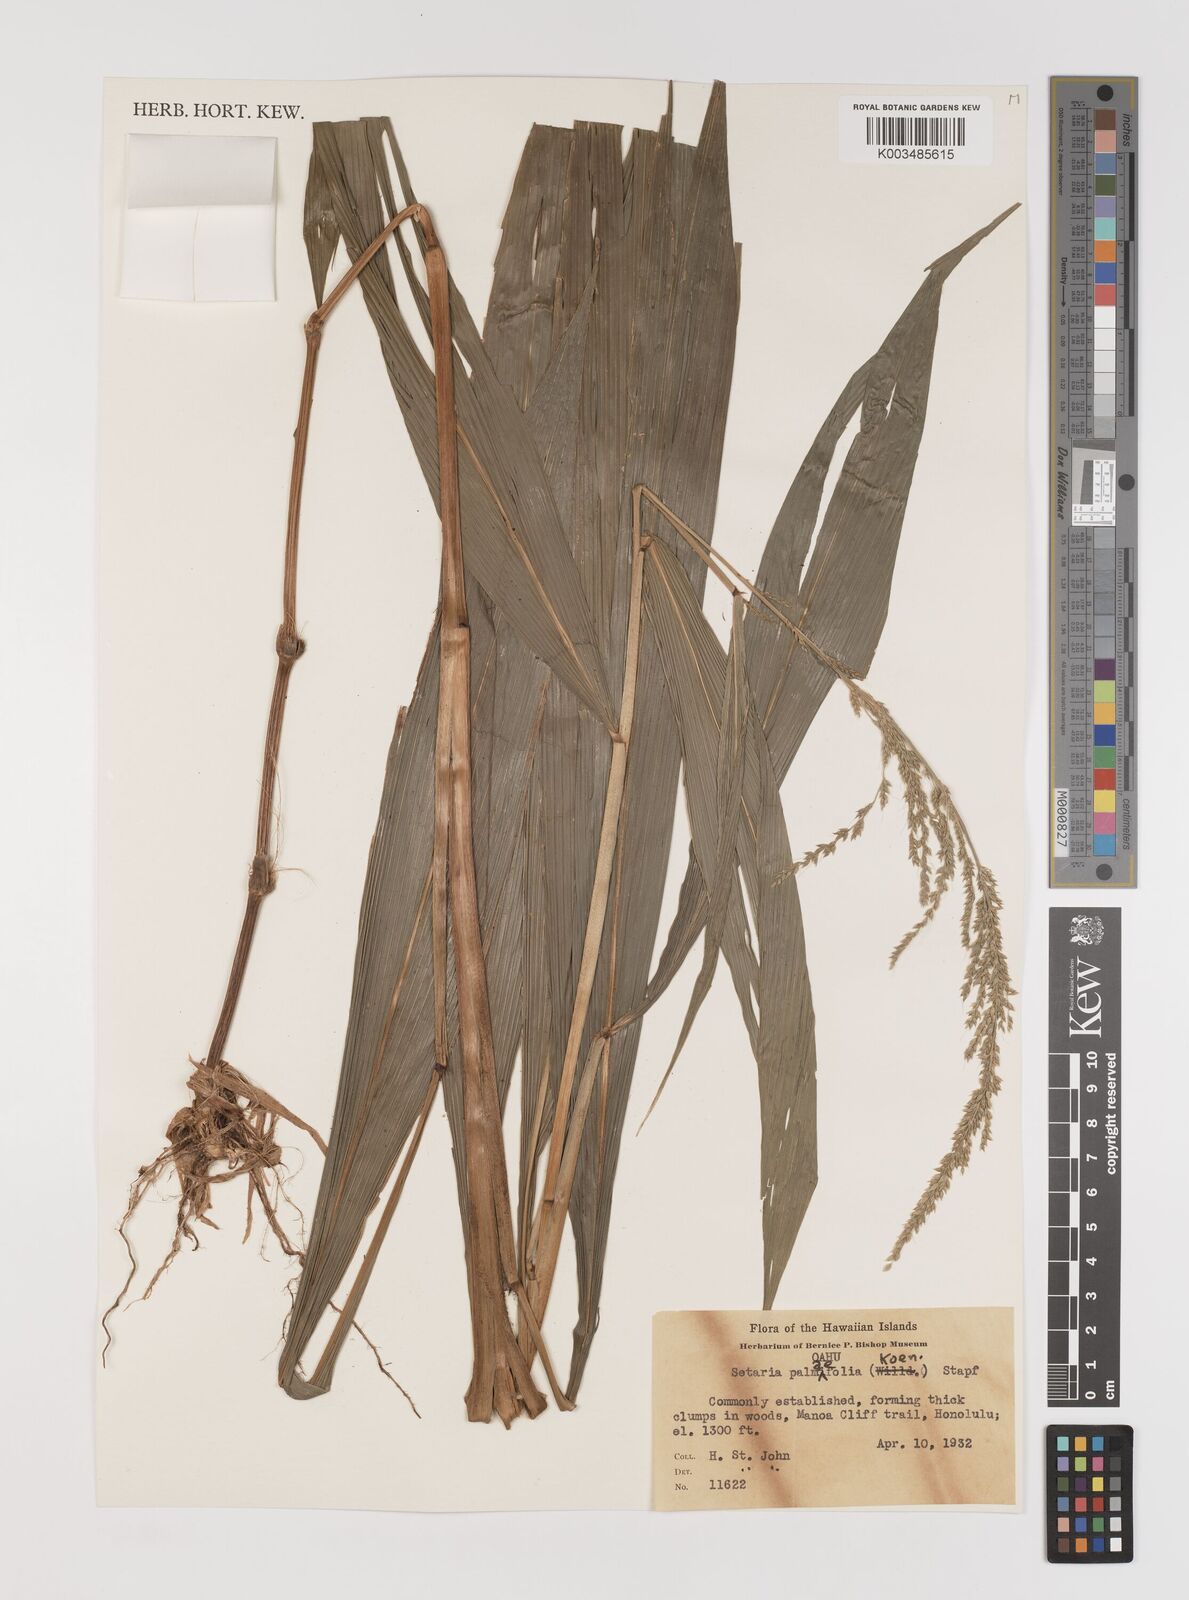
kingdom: Plantae
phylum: Tracheophyta
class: Liliopsida
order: Poales
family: Poaceae
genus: Setaria
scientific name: Setaria palmifolia
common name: Broadleaved bristlegrass
